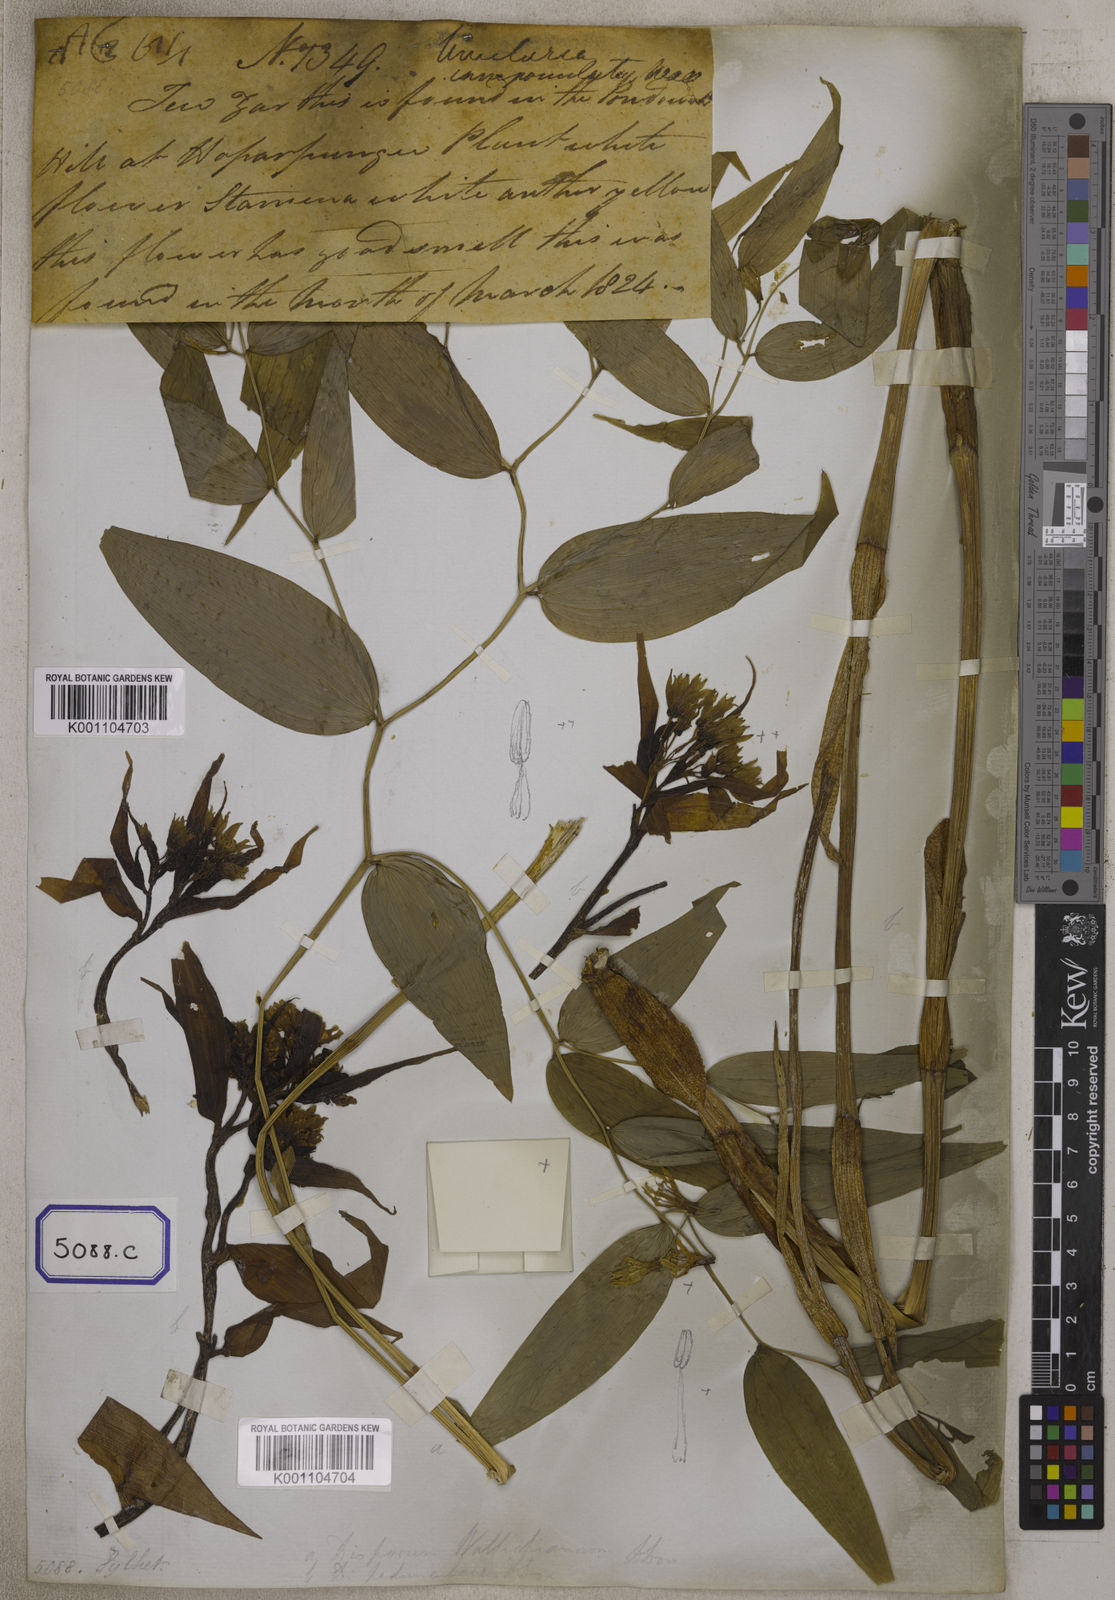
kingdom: Plantae
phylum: Tracheophyta
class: Liliopsida
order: Liliales
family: Colchicaceae
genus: Disporum
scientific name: Disporum calcaratum
